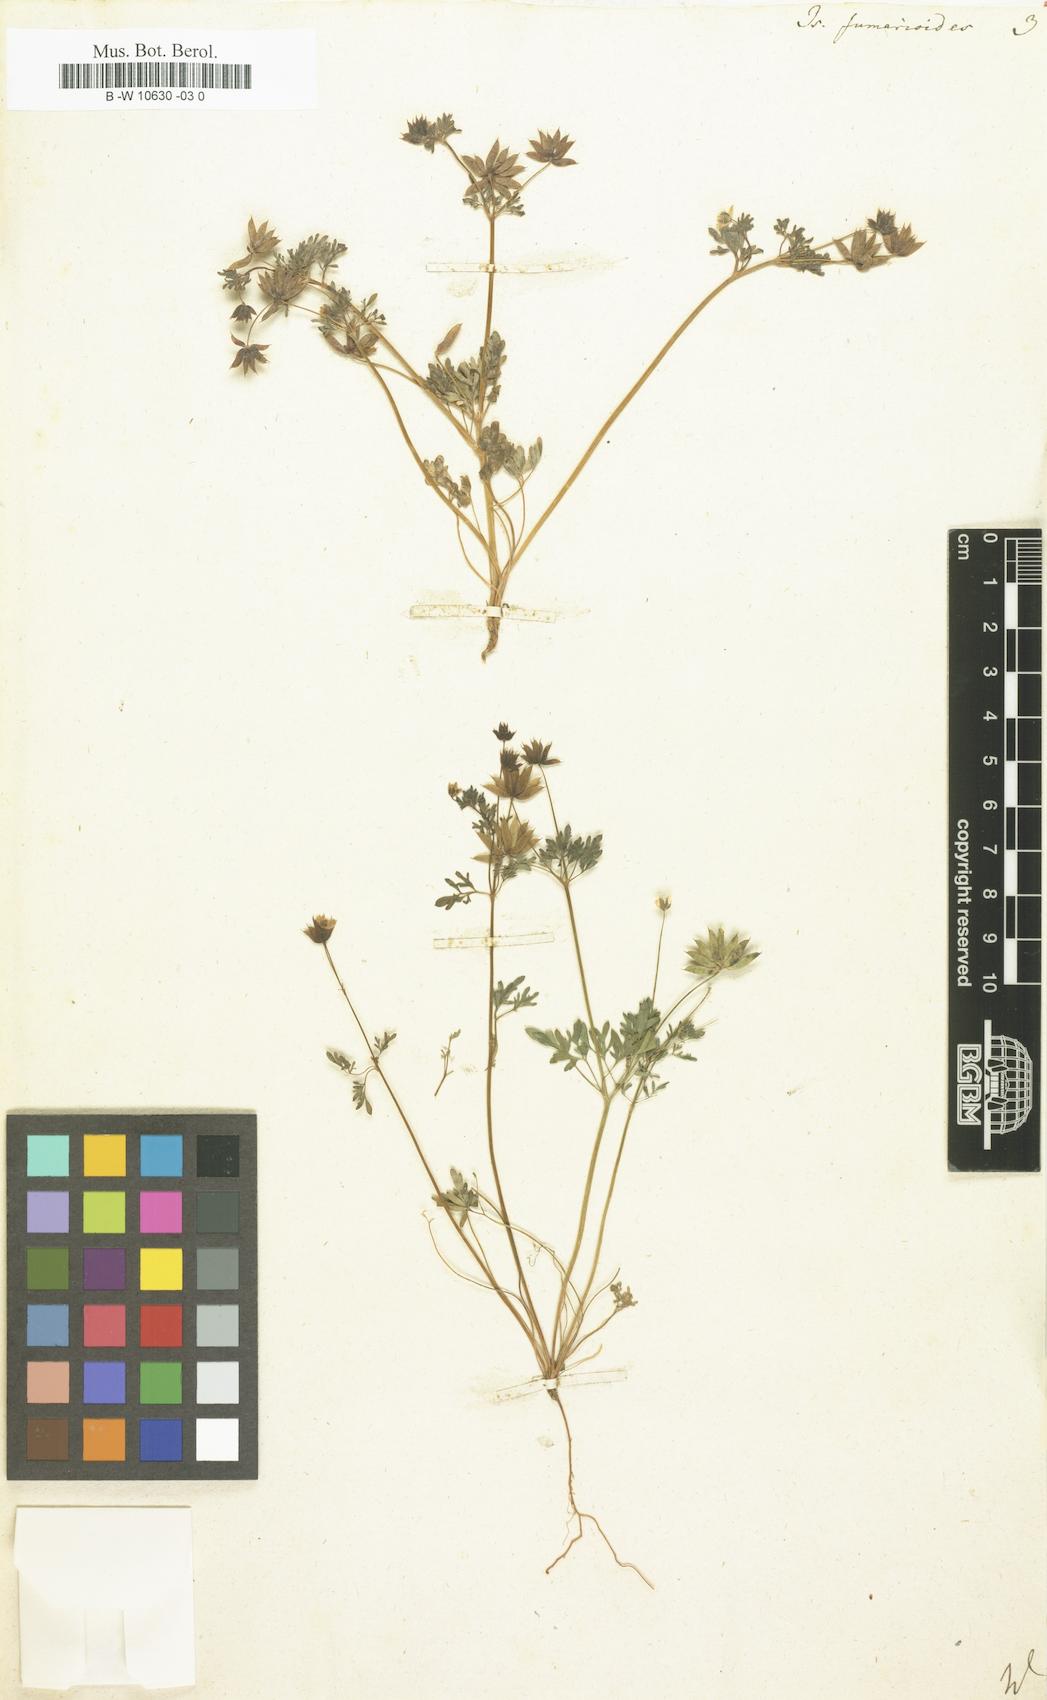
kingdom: Plantae
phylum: Tracheophyta
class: Magnoliopsida
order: Ranunculales
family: Ranunculaceae
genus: Leptopyrum
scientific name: Leptopyrum fumarioides
